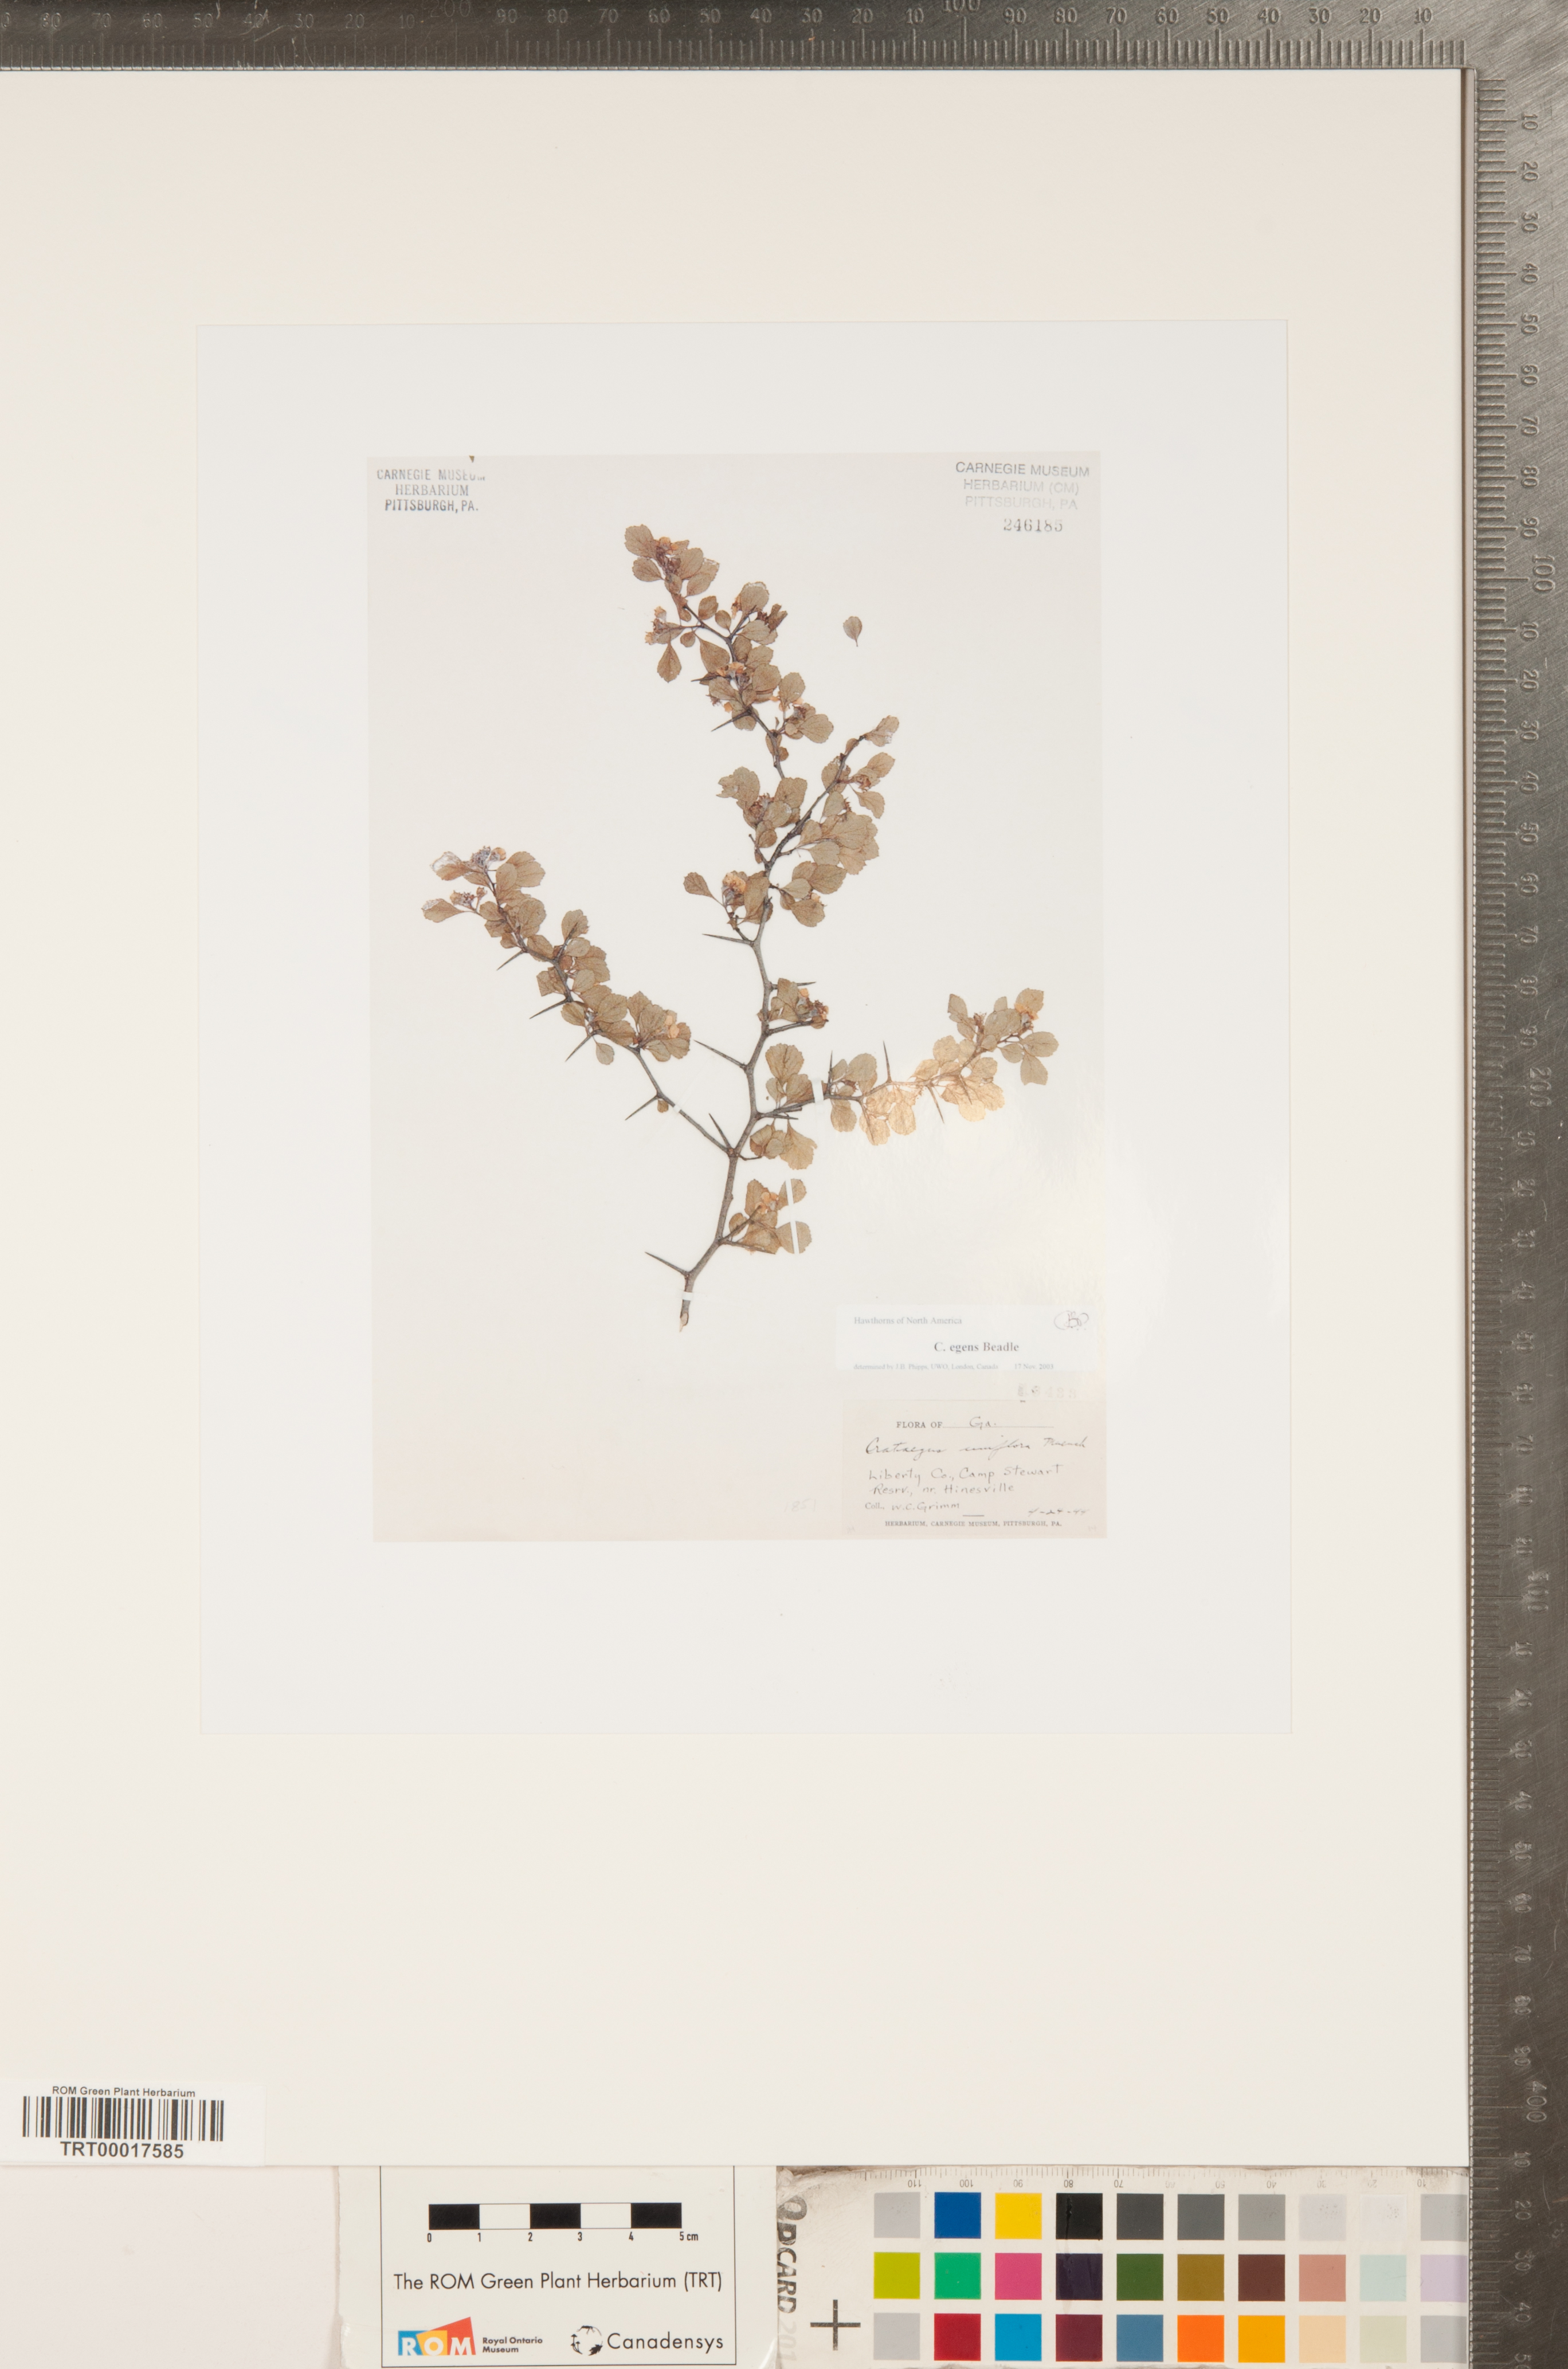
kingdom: Plantae
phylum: Tracheophyta
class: Magnoliopsida
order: Rosales
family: Rosaceae
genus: Crataegus
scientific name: Crataegus senta
